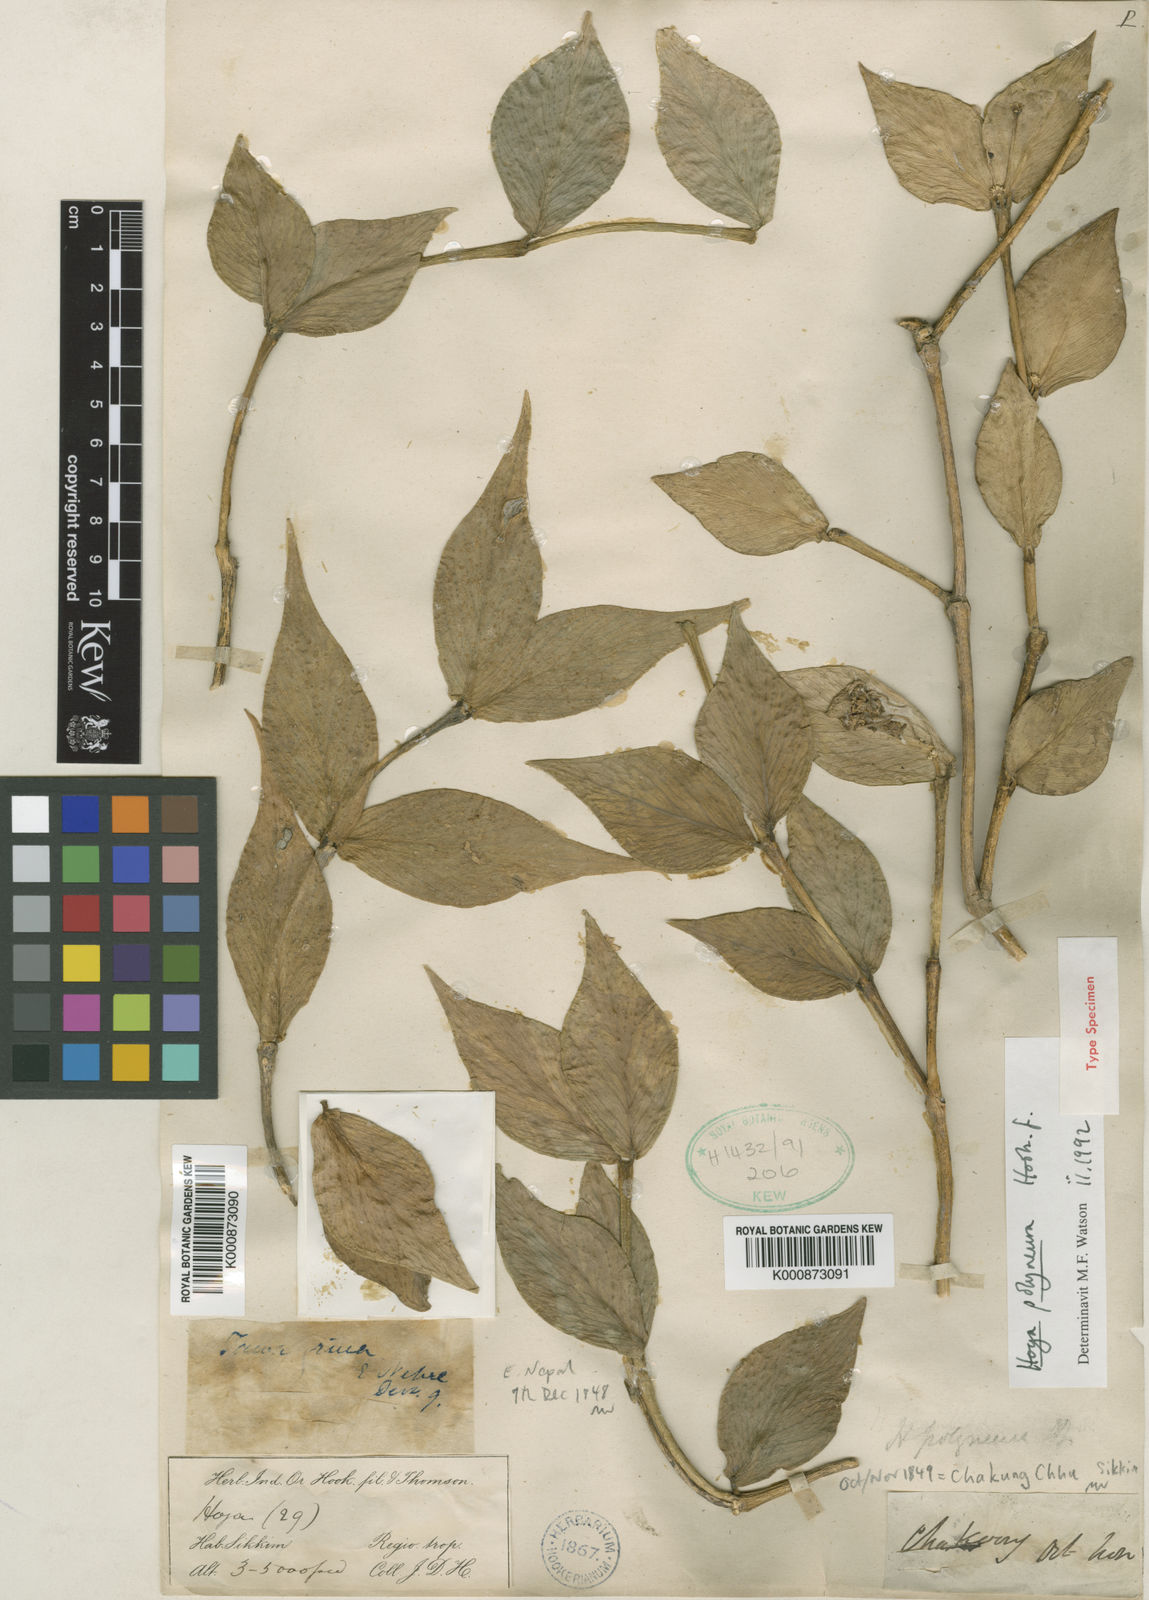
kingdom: Plantae
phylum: Tracheophyta
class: Magnoliopsida
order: Gentianales
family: Apocynaceae
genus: Hoya
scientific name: Hoya polyneura
